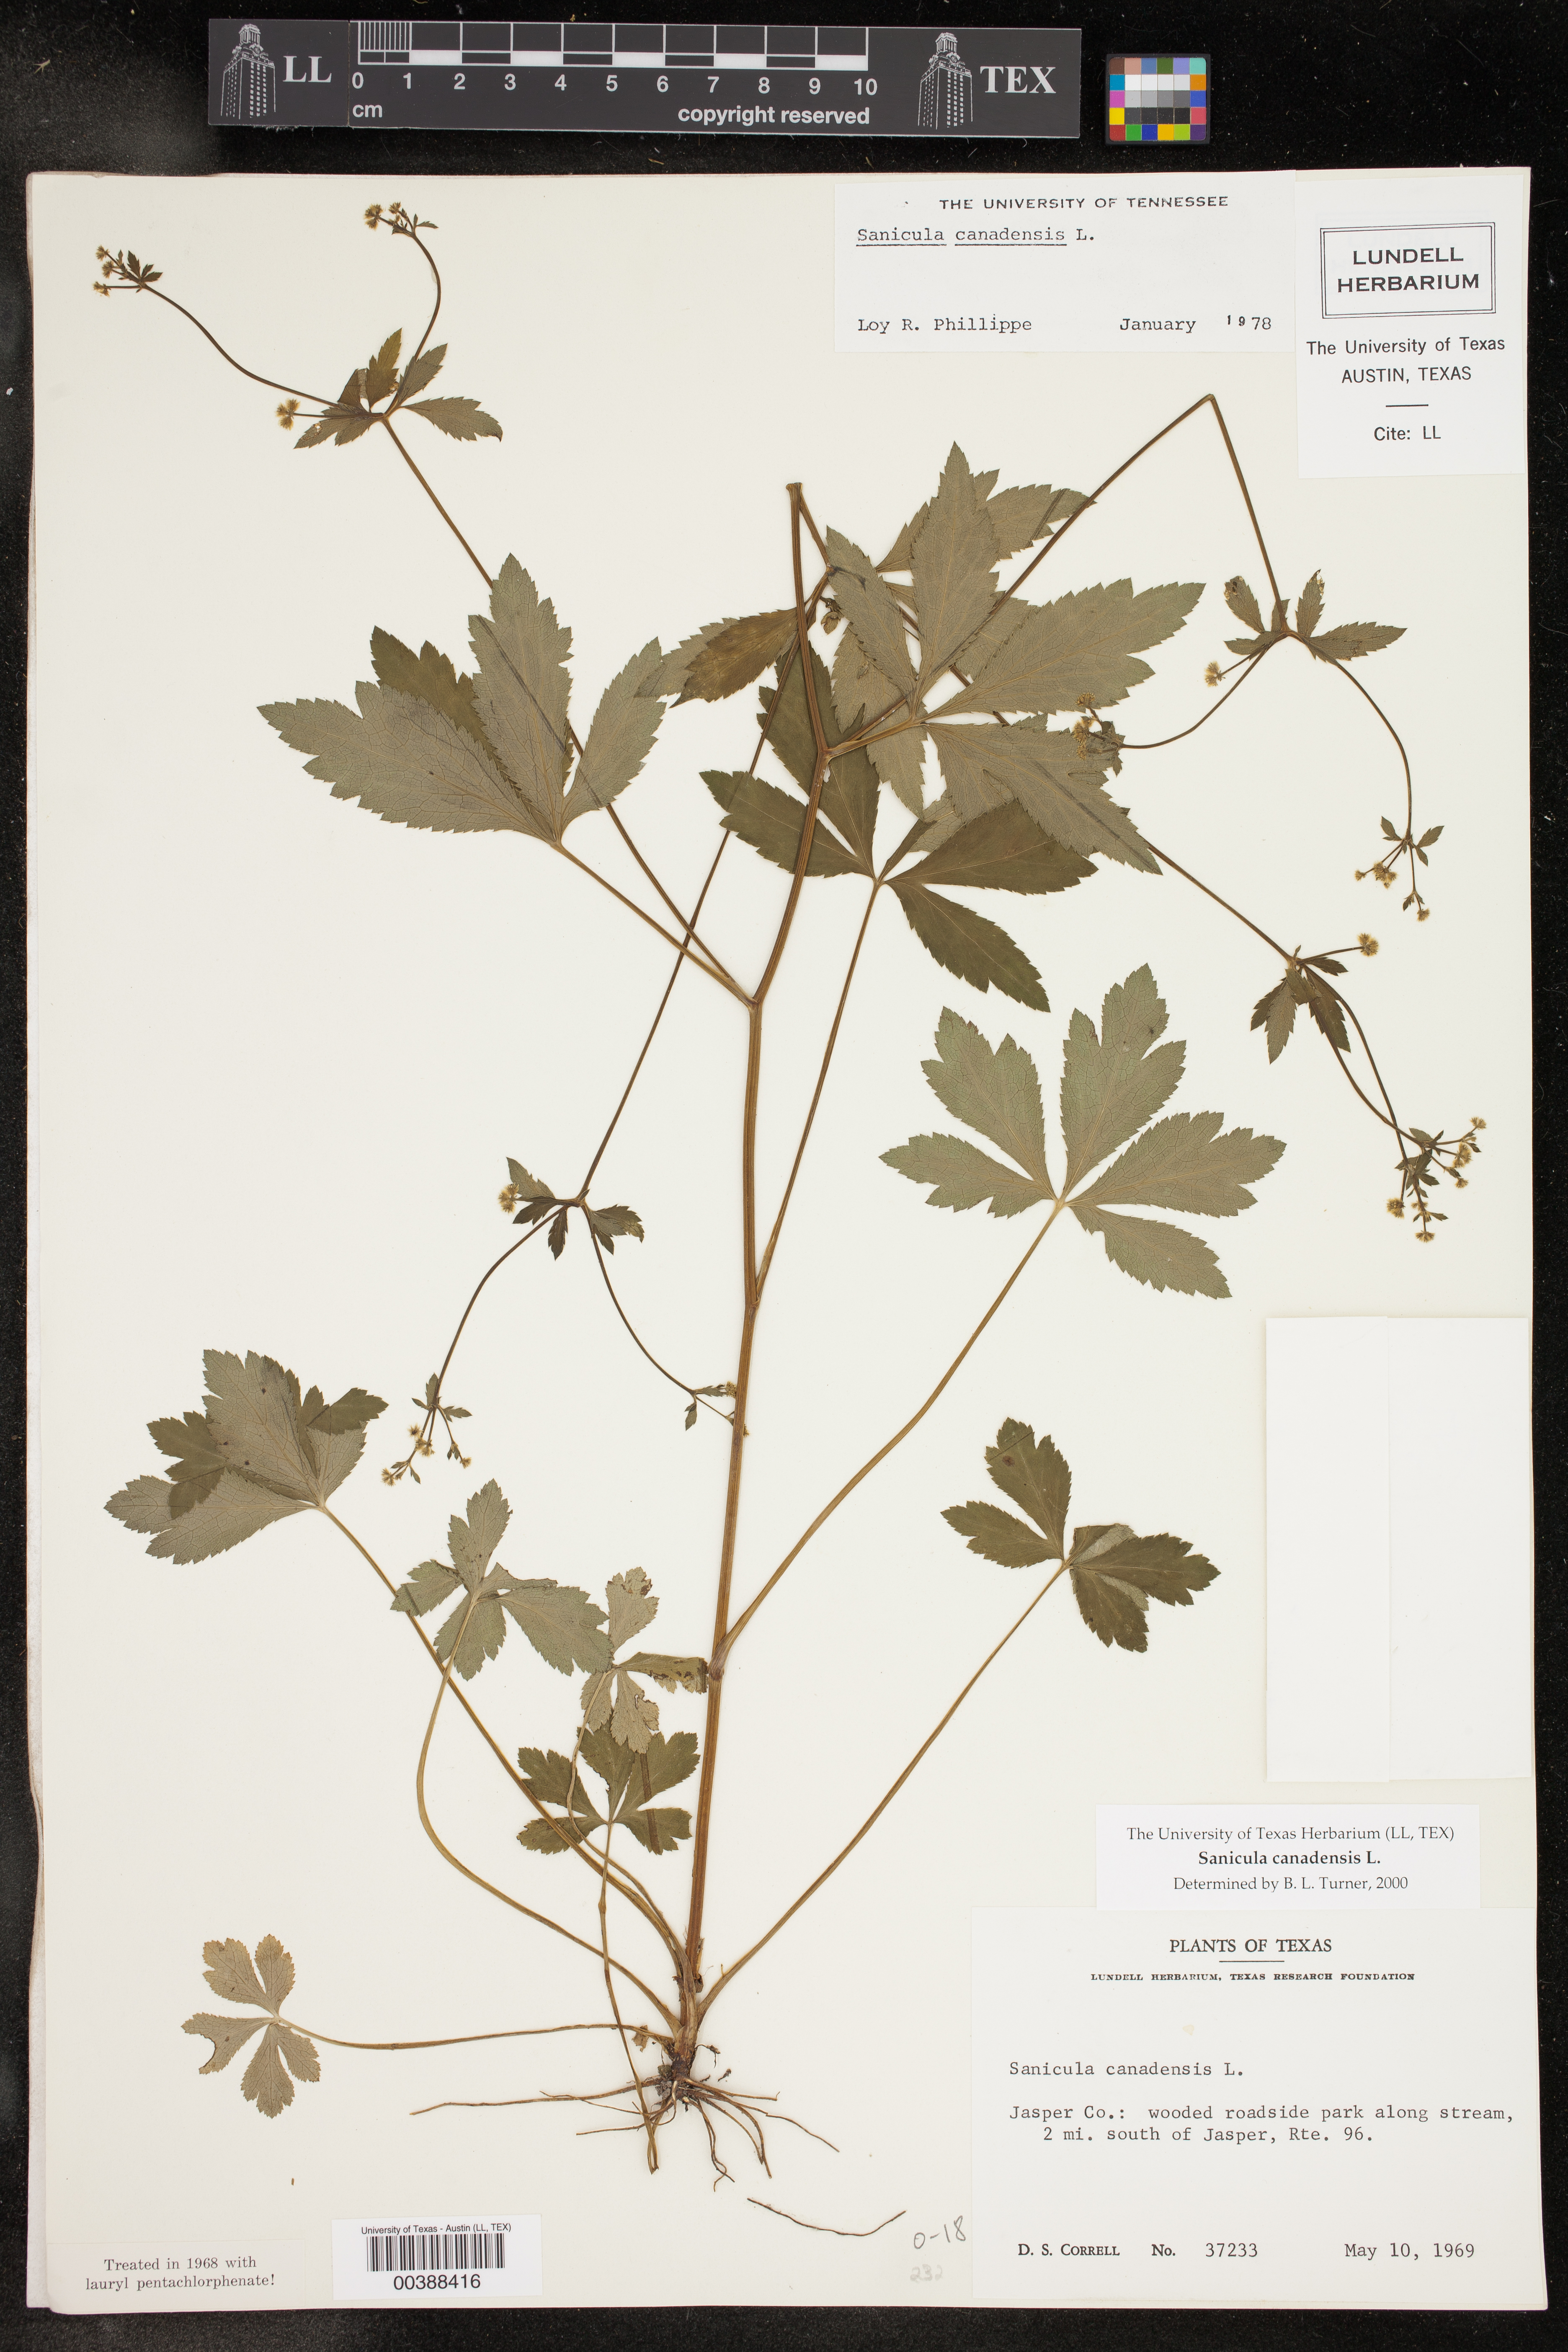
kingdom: Plantae
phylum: Tracheophyta
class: Magnoliopsida
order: Apiales
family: Apiaceae
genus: Sanicula
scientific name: Sanicula canadensis
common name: Canada sanicle
